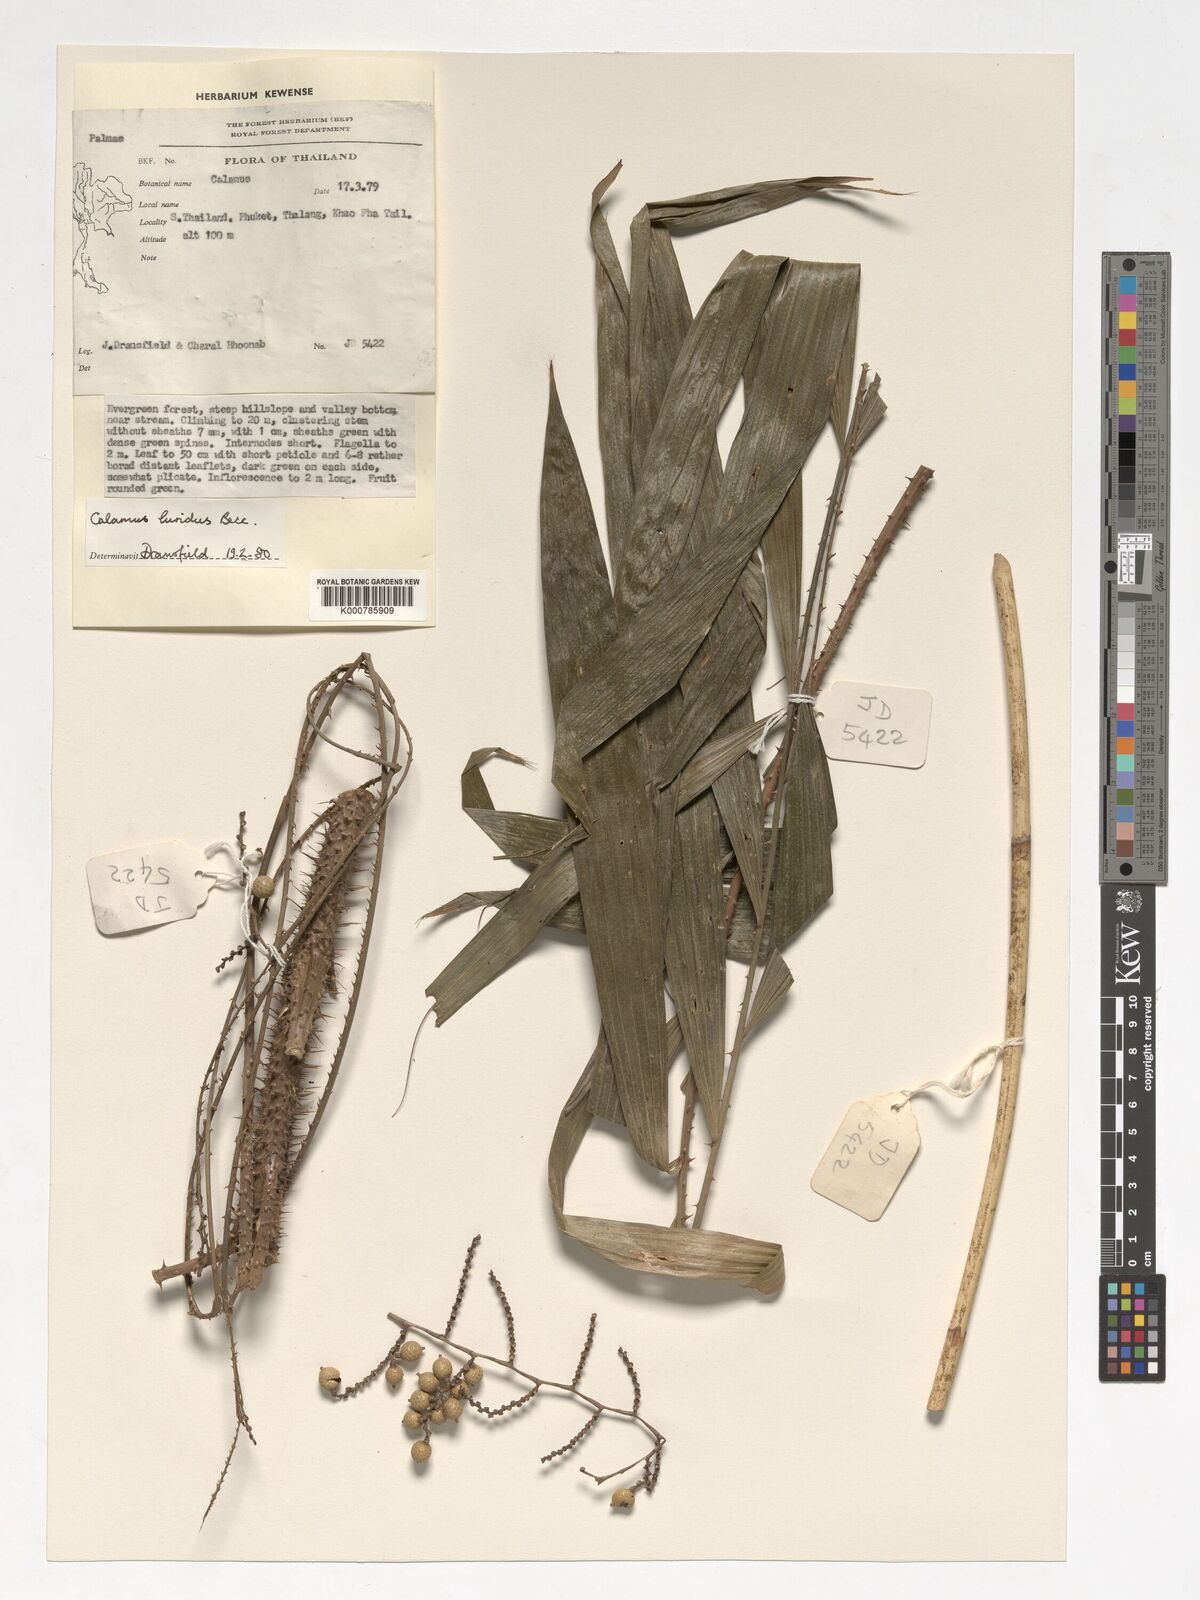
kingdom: Plantae
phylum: Tracheophyta
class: Liliopsida
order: Arecales
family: Arecaceae
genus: Calamus
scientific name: Calamus micranthus
